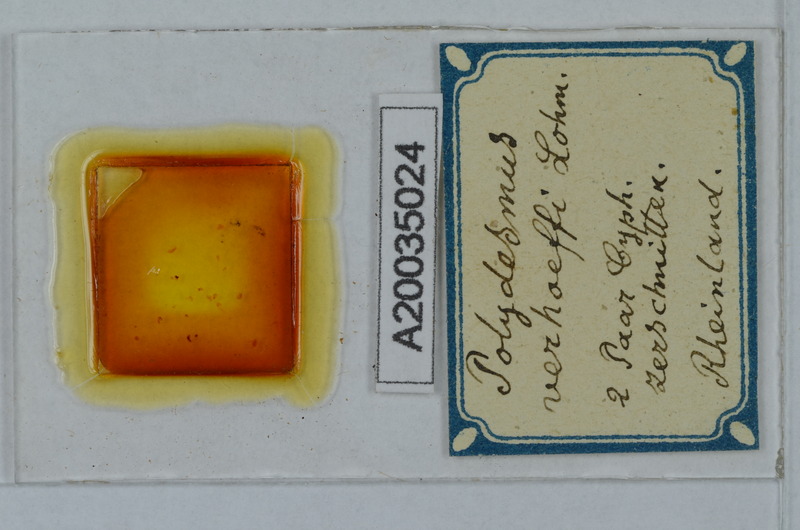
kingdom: Animalia
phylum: Arthropoda
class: Diplopoda
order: Polydesmida
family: Polydesmidae
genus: Polydesmus
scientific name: Polydesmus angustus
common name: Flat millipede
